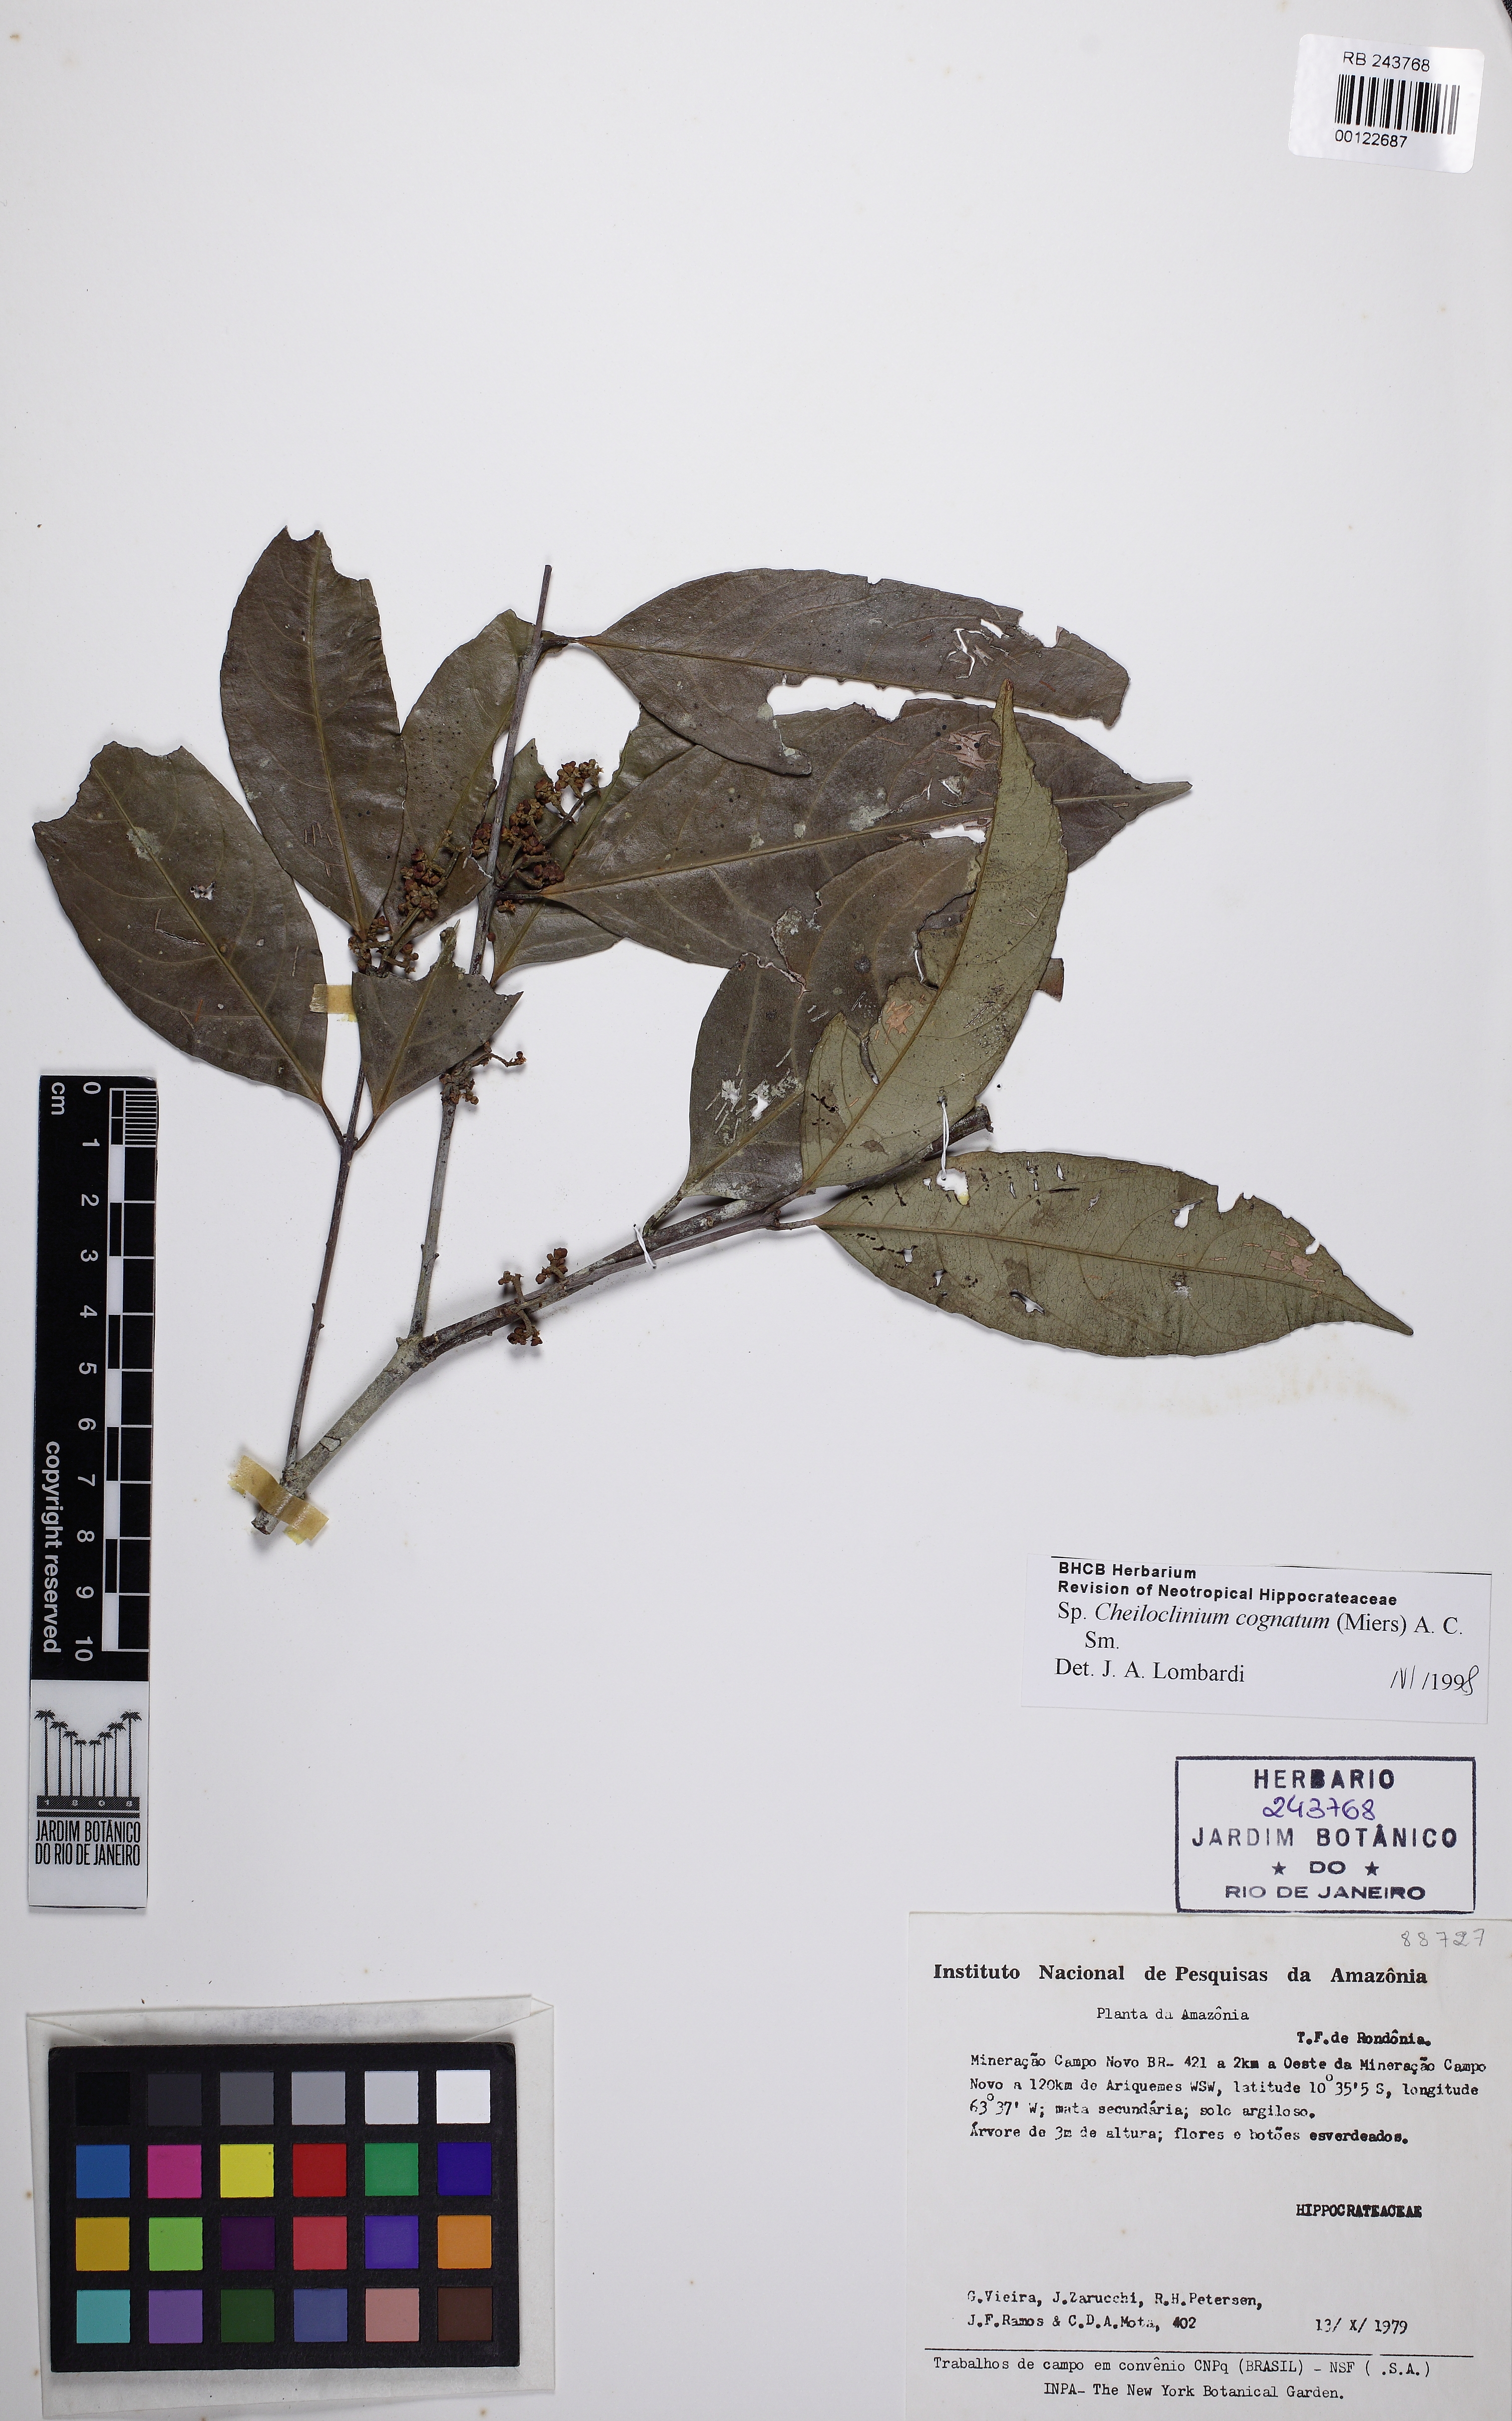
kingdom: Plantae
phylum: Tracheophyta
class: Magnoliopsida
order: Celastrales
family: Celastraceae
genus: Cheiloclinium
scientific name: Cheiloclinium cognatum
